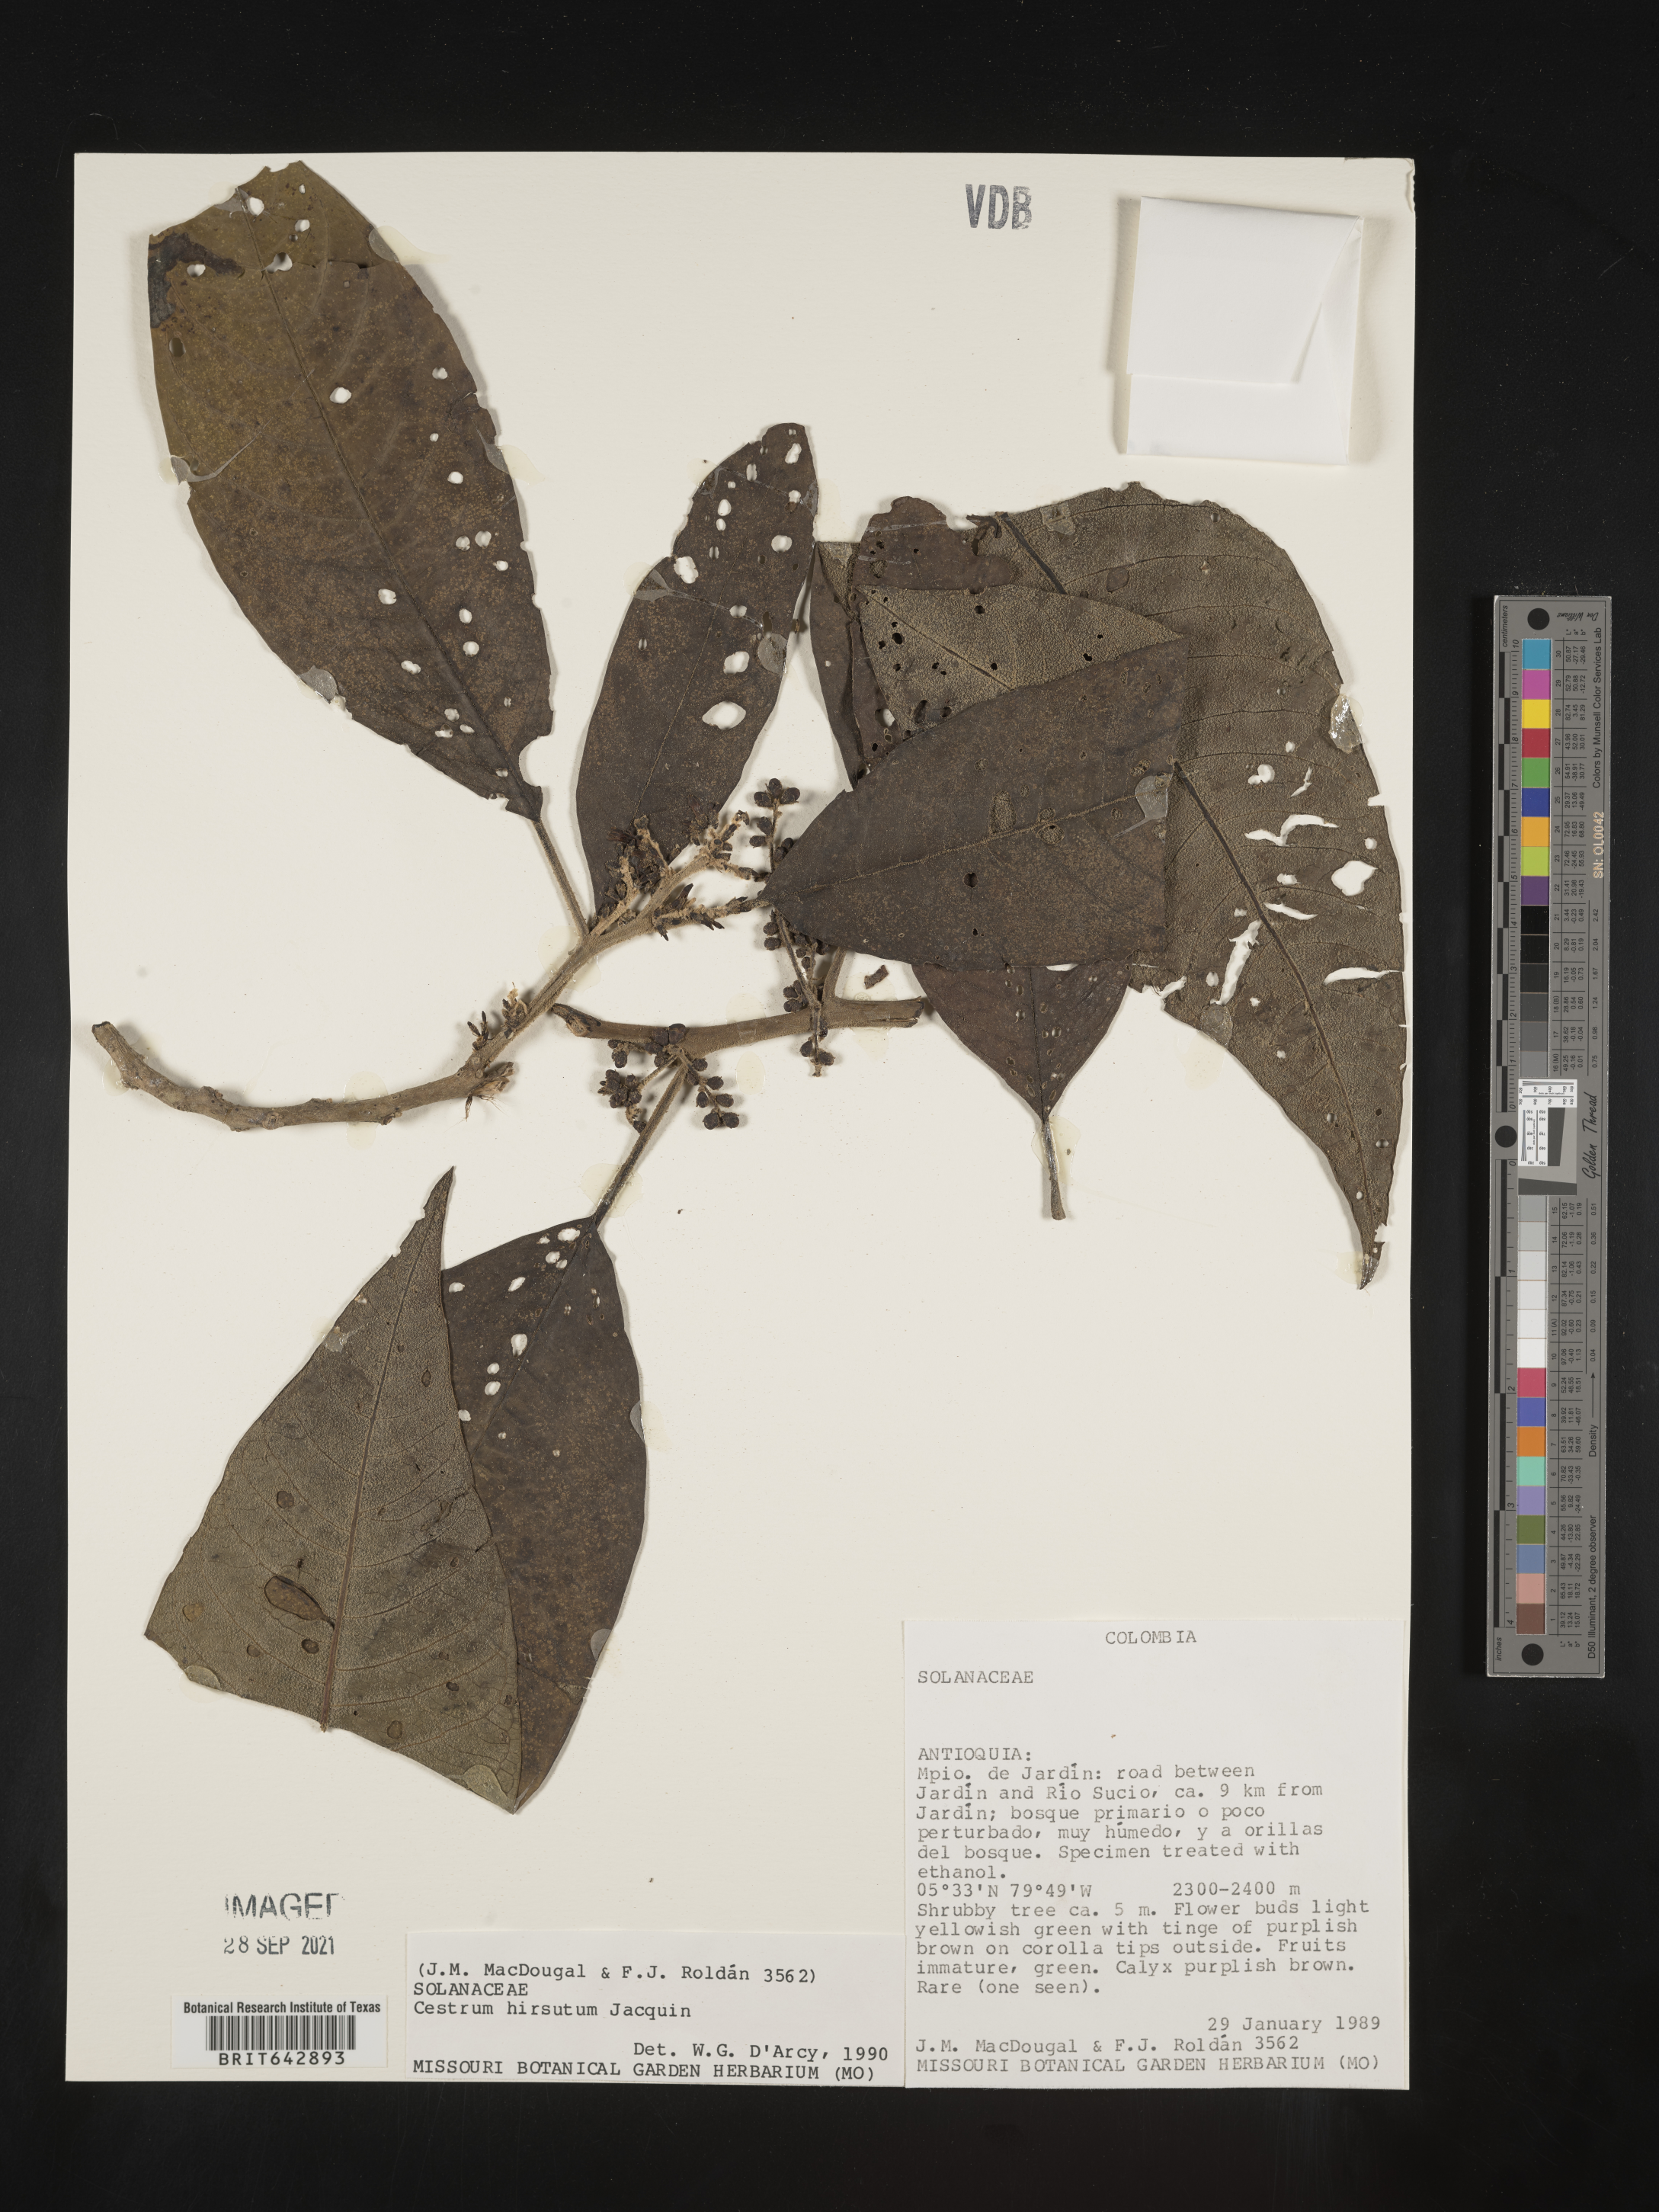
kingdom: Plantae
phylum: Tracheophyta
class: Magnoliopsida
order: Solanales
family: Solanaceae
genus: Cestrum
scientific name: Cestrum
